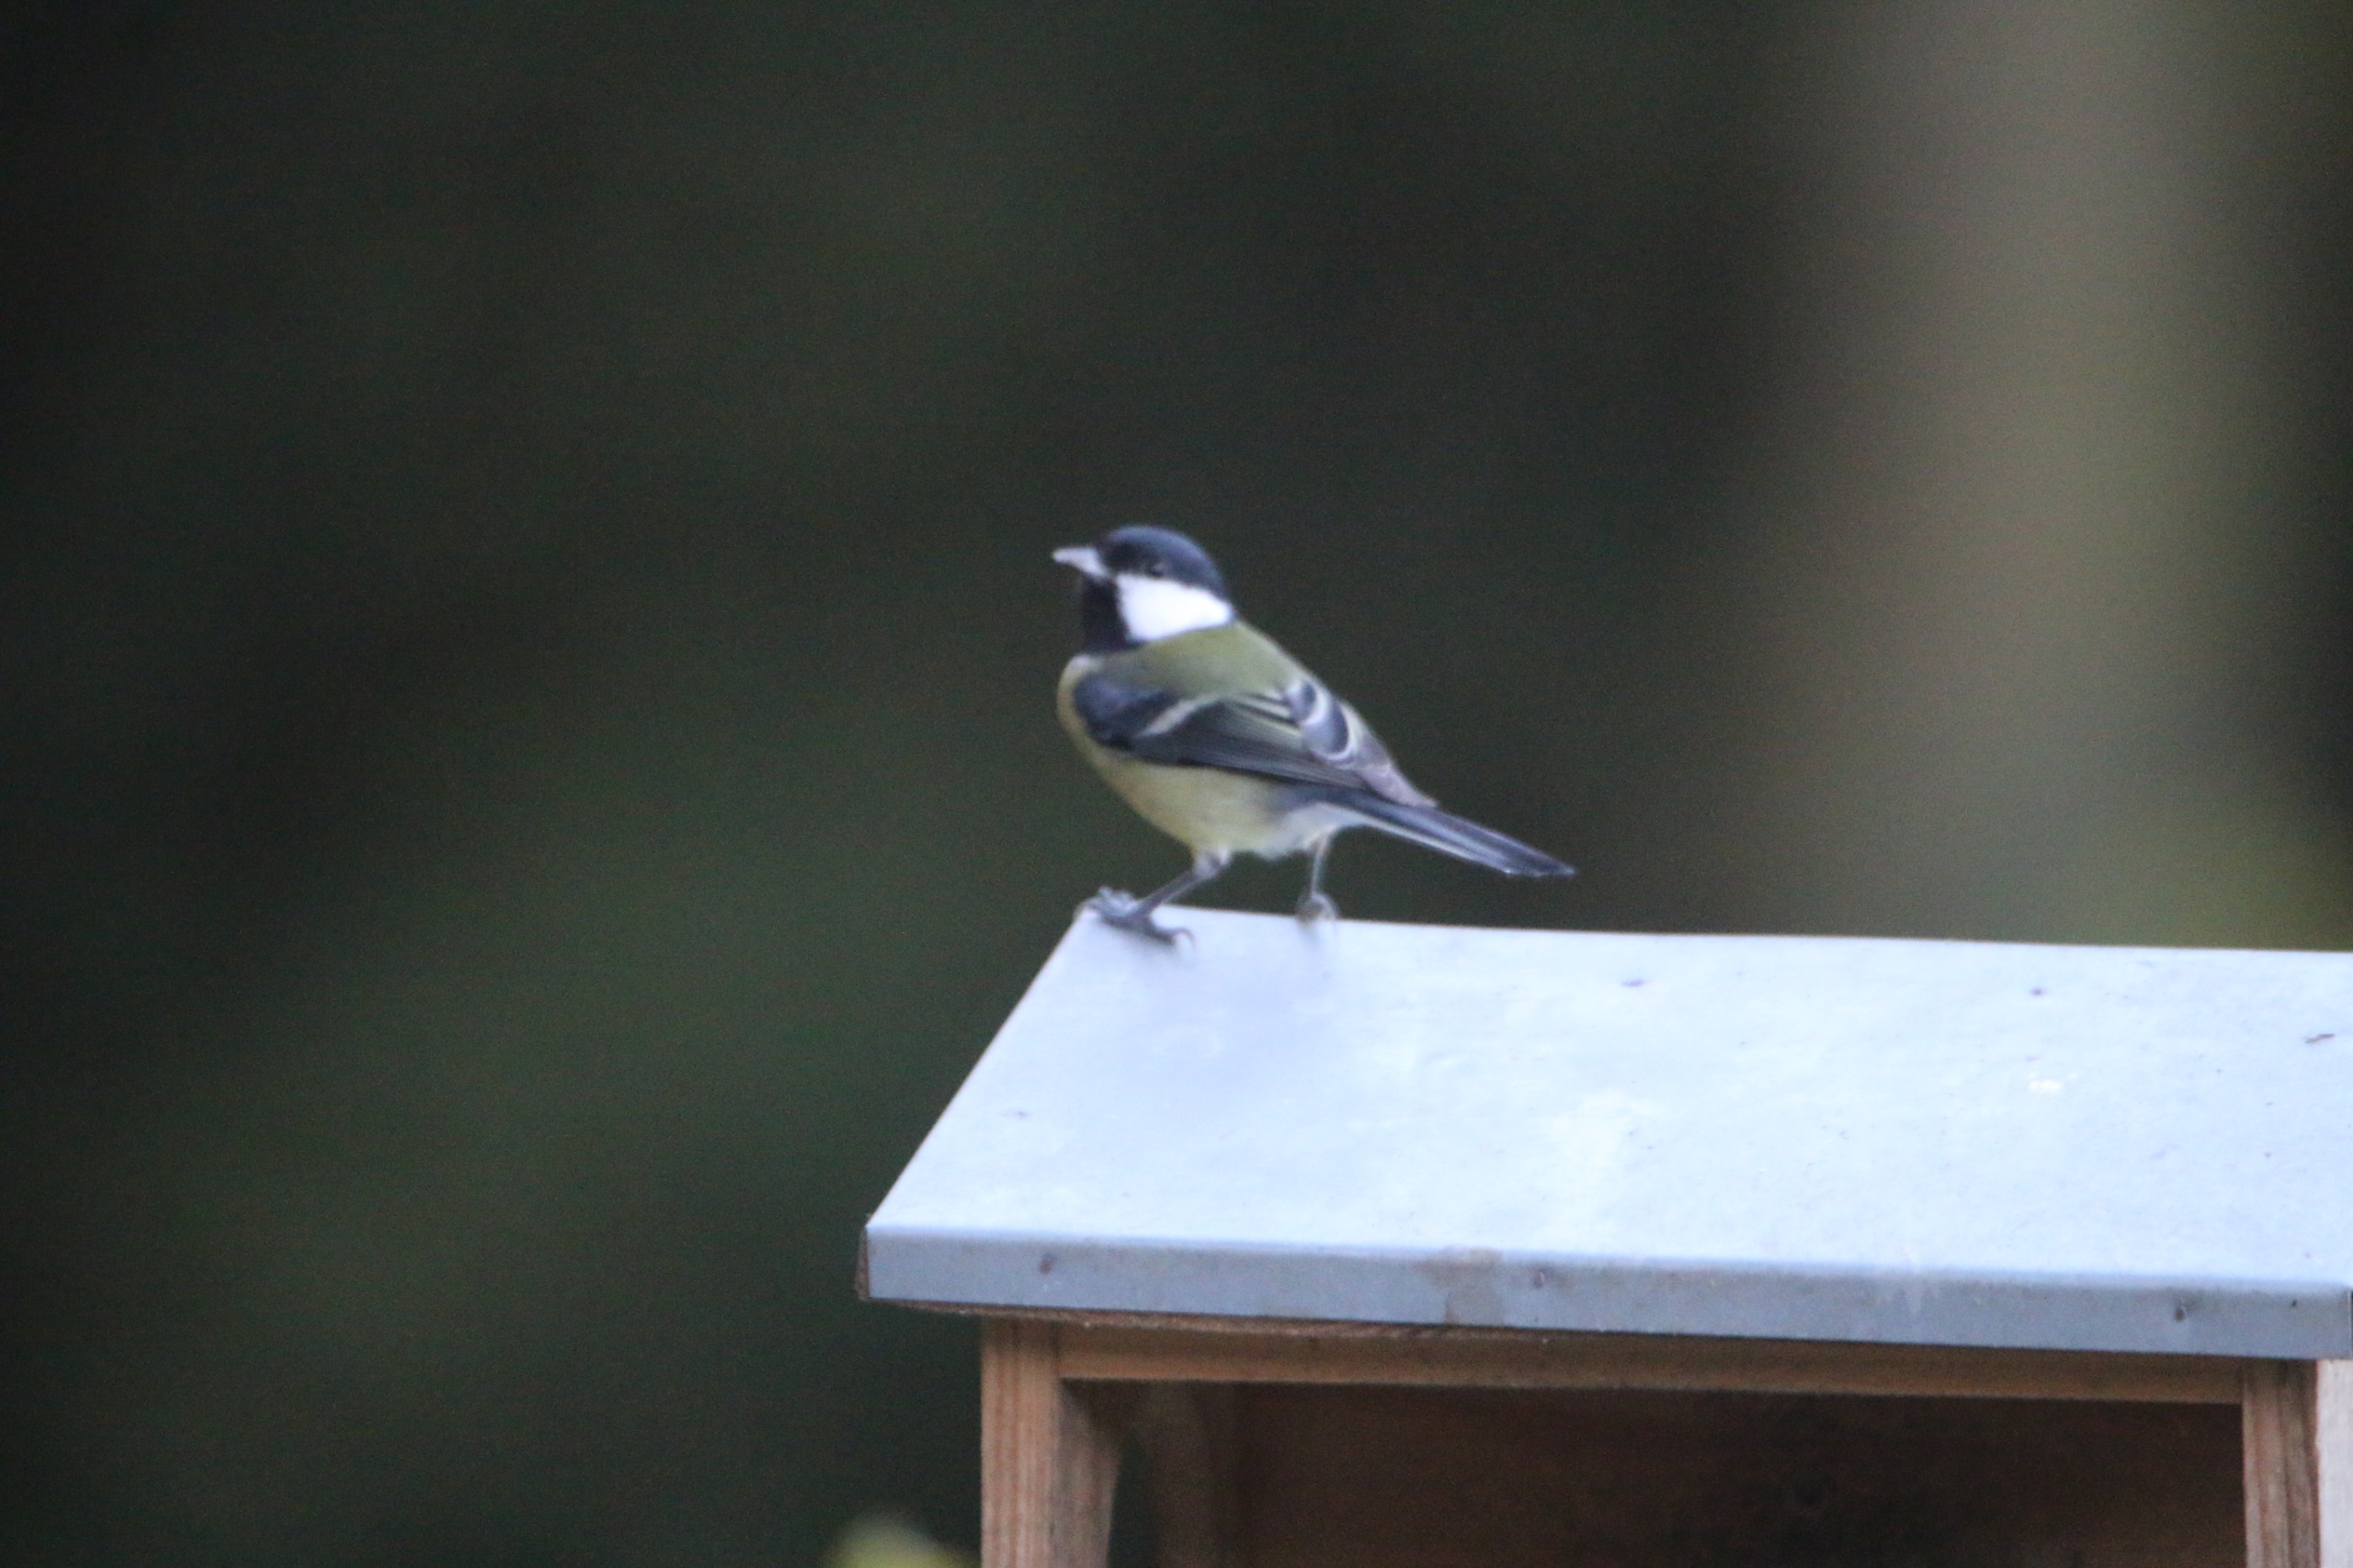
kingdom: Animalia
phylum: Chordata
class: Aves
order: Passeriformes
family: Paridae
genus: Parus
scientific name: Parus major
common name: Musvit
